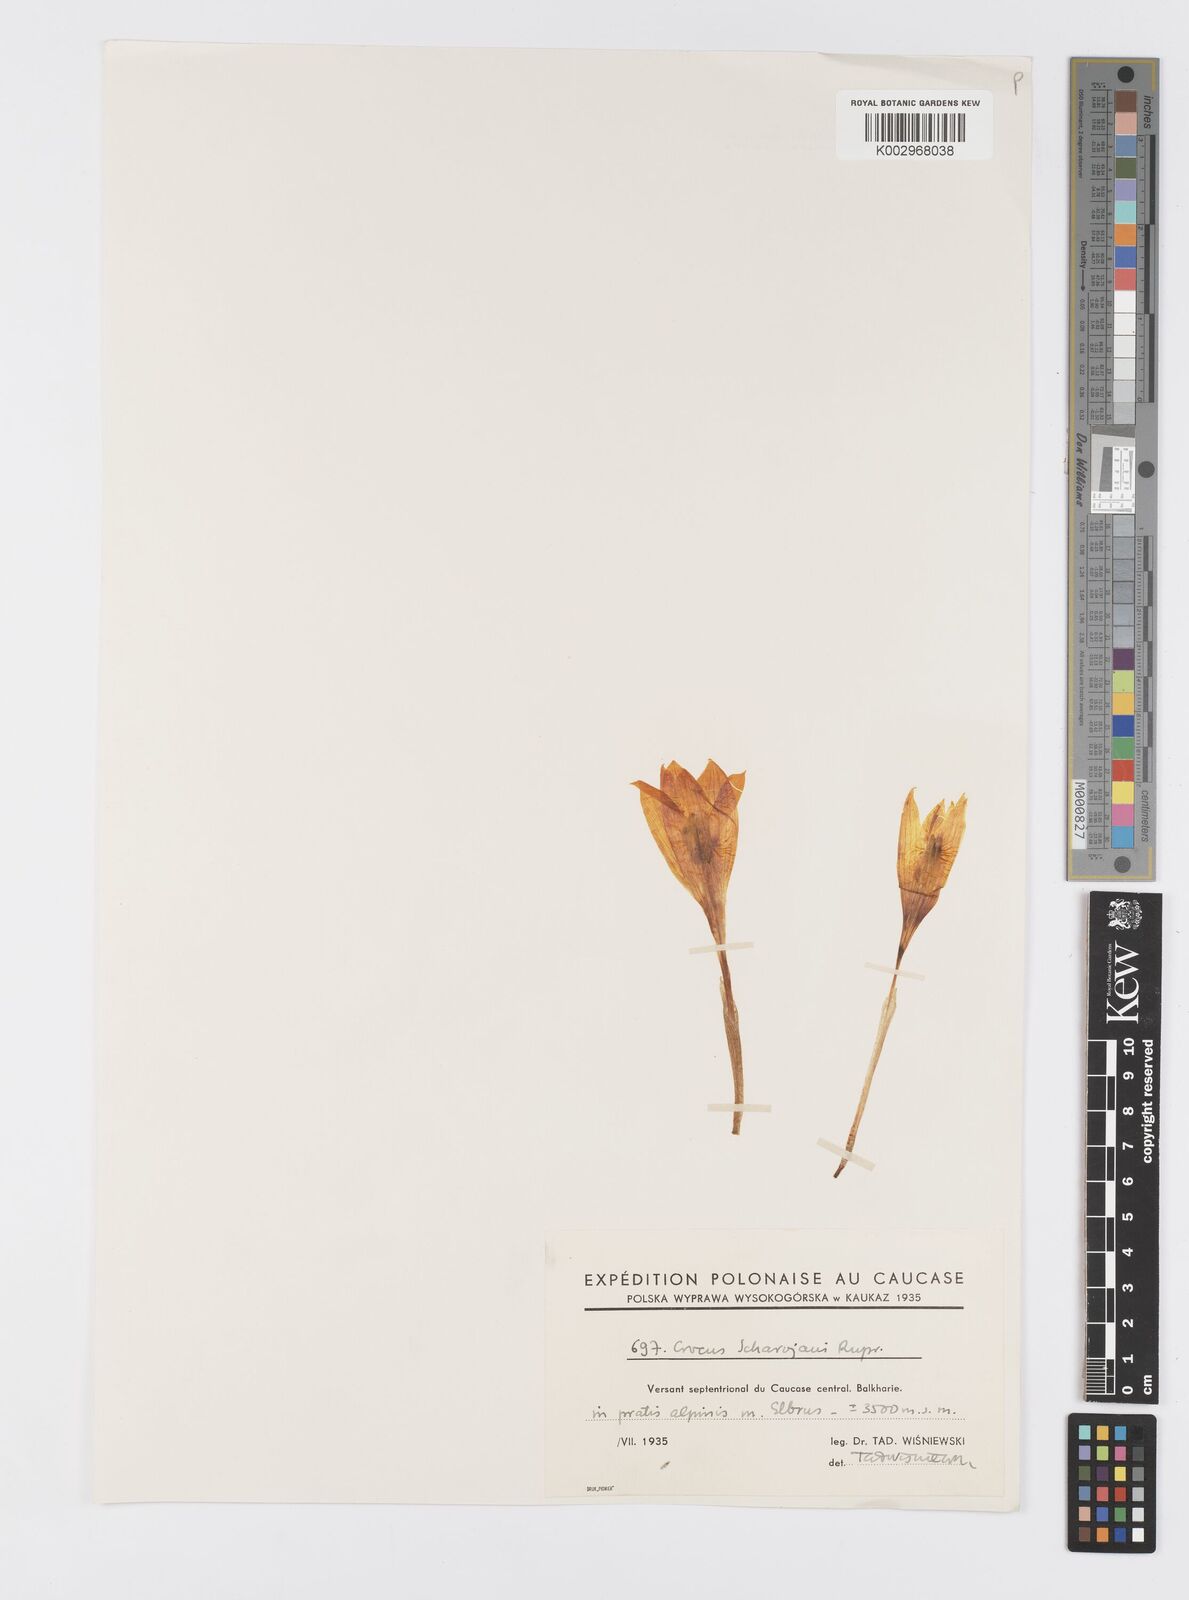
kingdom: Plantae
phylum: Tracheophyta
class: Liliopsida
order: Asparagales
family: Iridaceae
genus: Crocus
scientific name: Crocus lazicus
